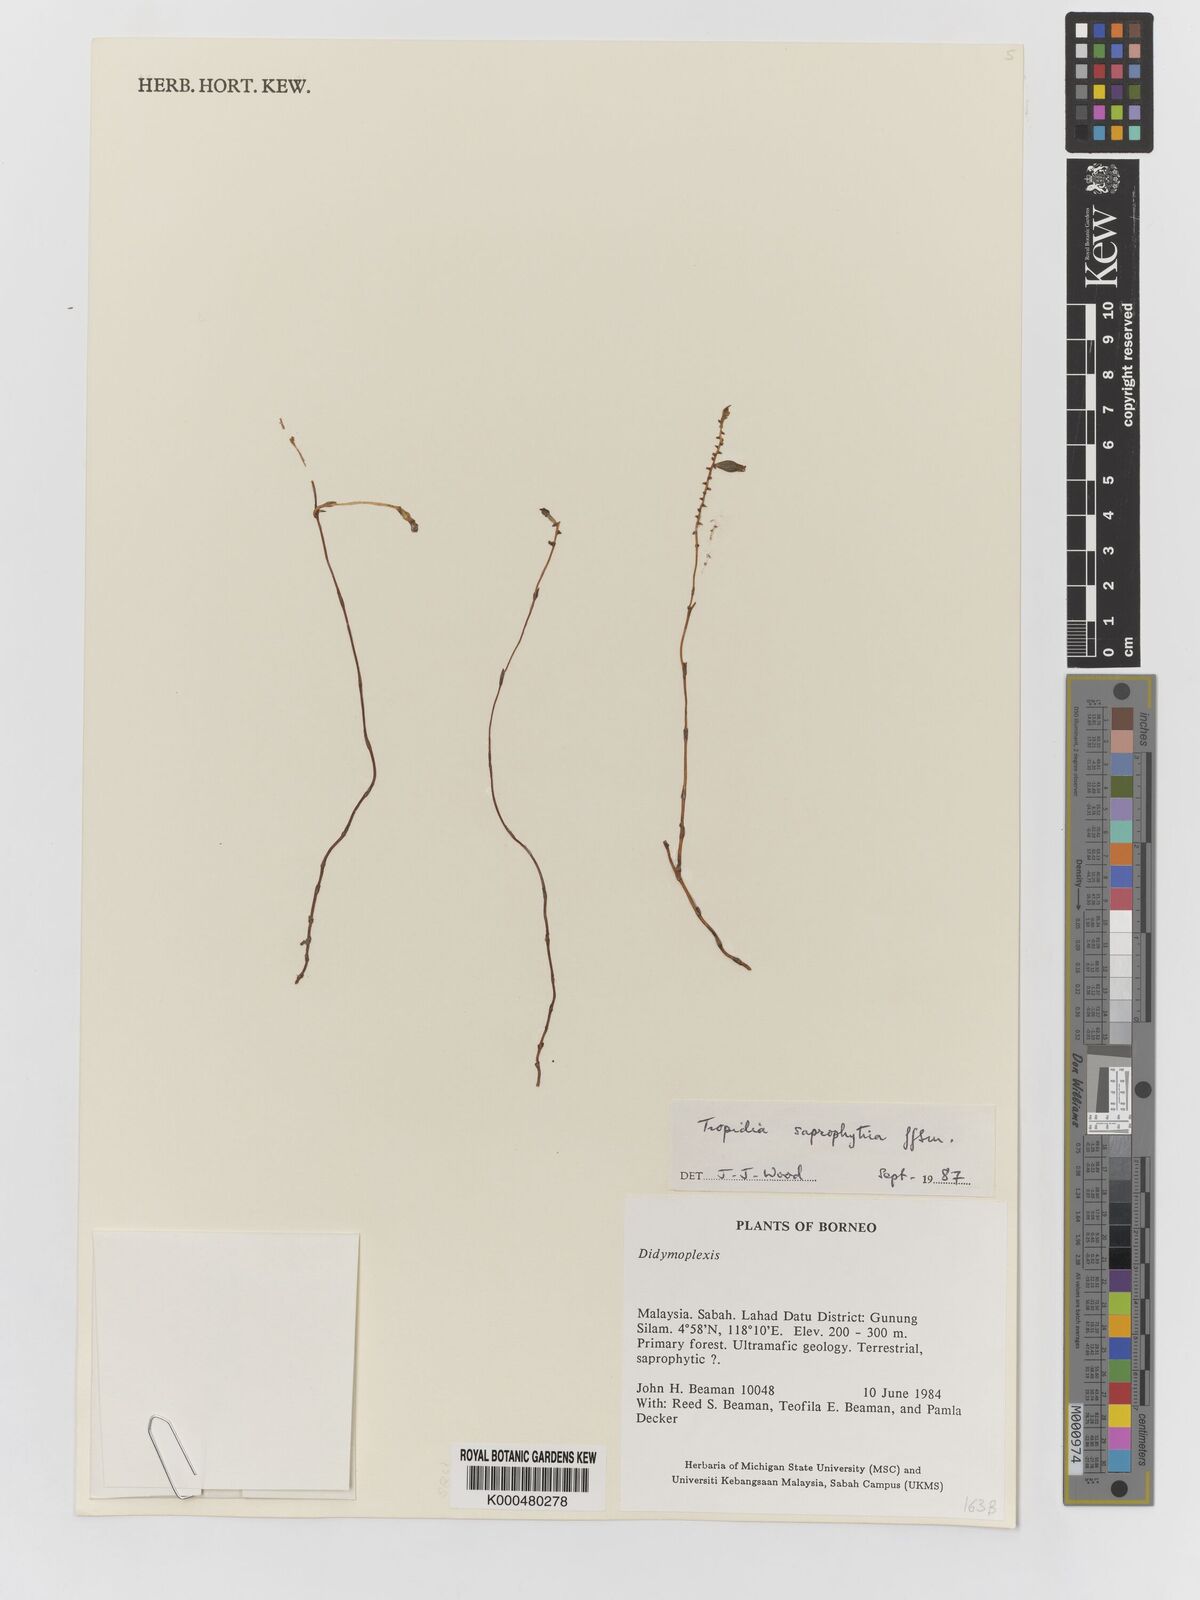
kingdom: Plantae
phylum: Tracheophyta
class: Liliopsida
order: Asparagales
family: Orchidaceae
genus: Tropidia
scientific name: Tropidia saprophytica
